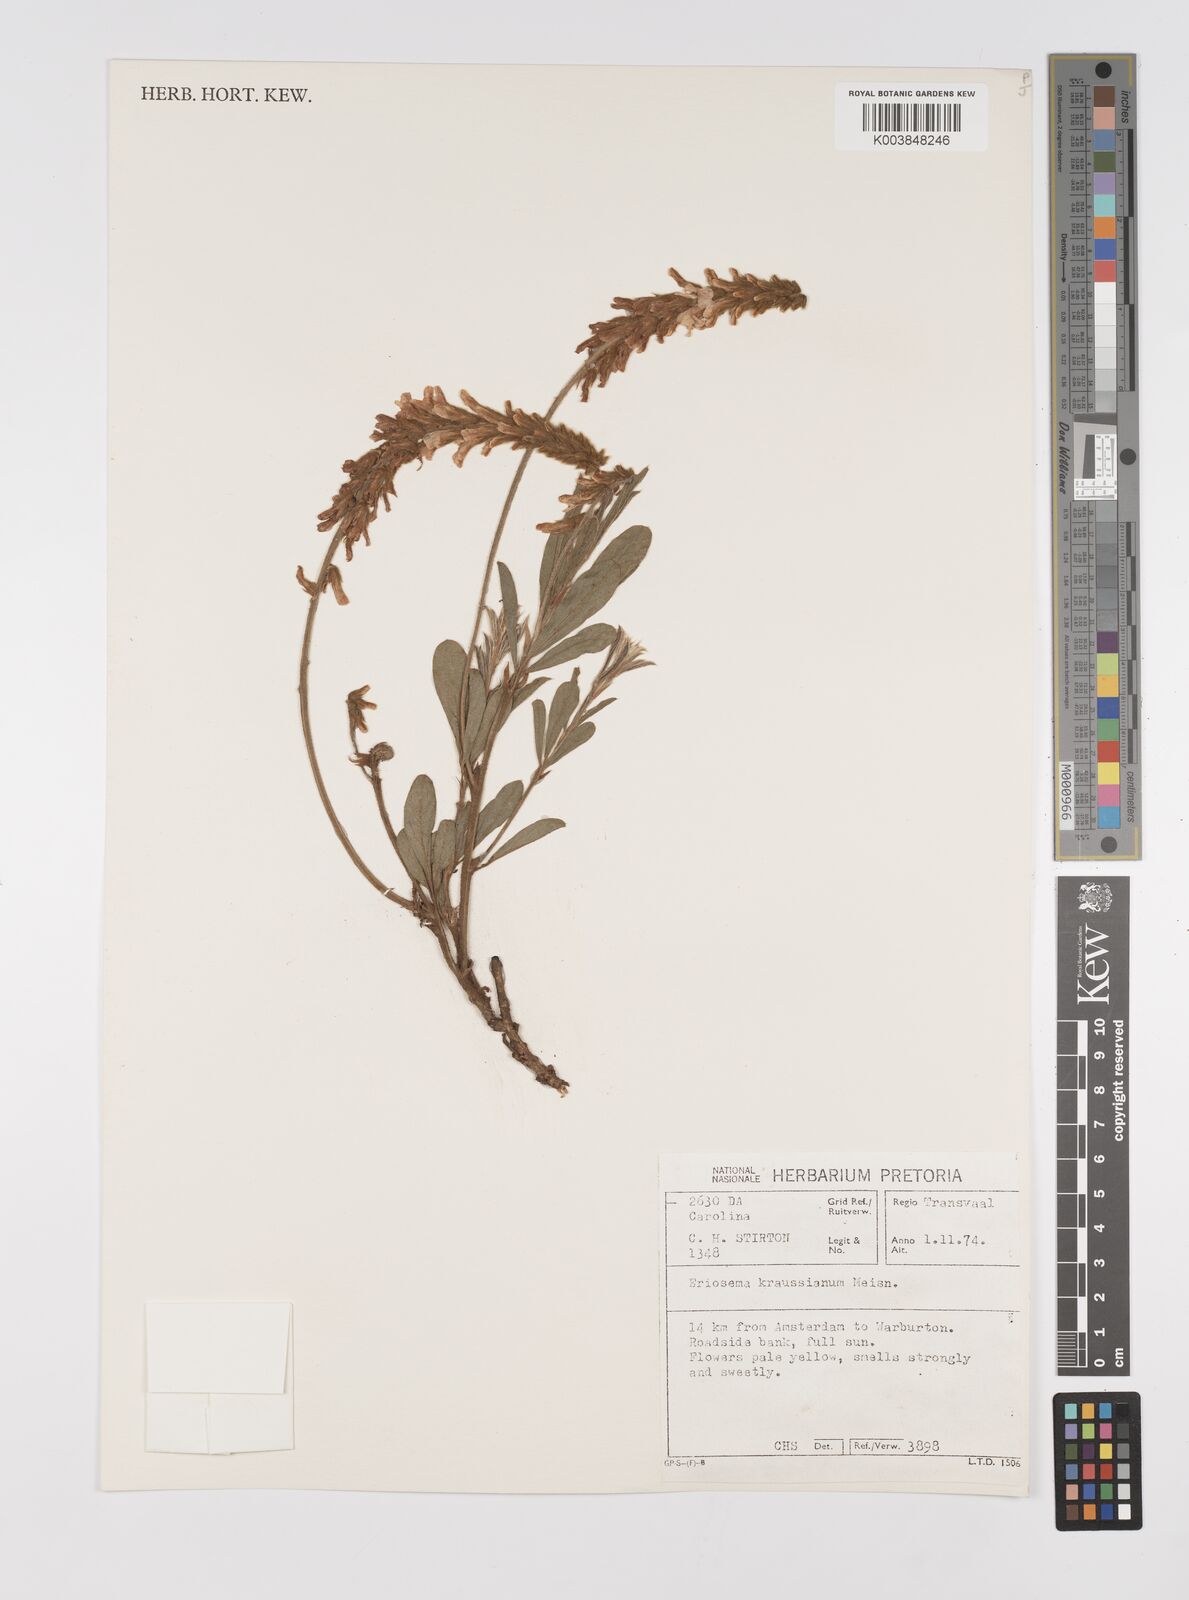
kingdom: Plantae
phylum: Tracheophyta
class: Magnoliopsida
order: Fabales
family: Fabaceae
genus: Eriosema
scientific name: Eriosema kraussianum
